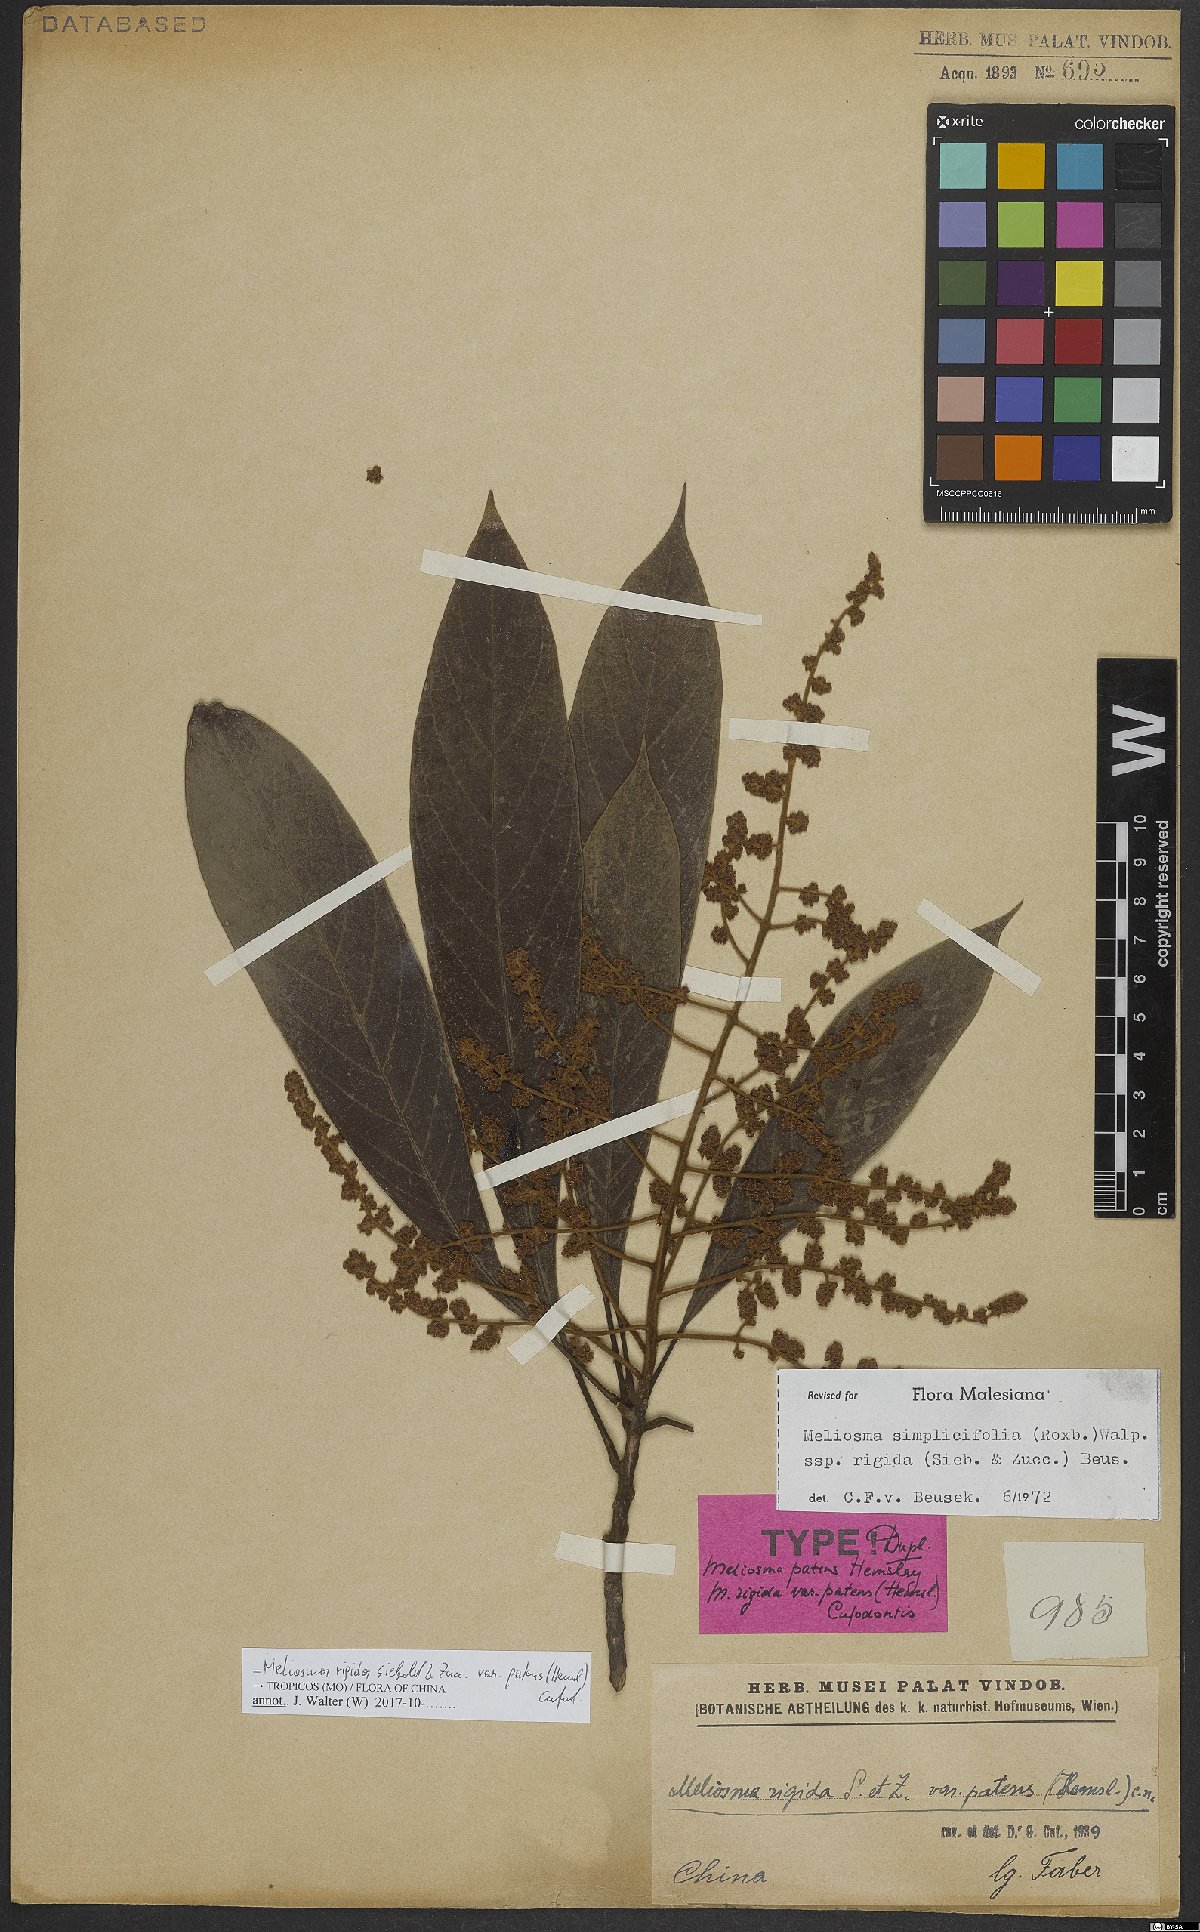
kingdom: Plantae
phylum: Tracheophyta
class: Magnoliopsida
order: Proteales
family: Sabiaceae
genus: Meliosma
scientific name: Meliosma rigida
